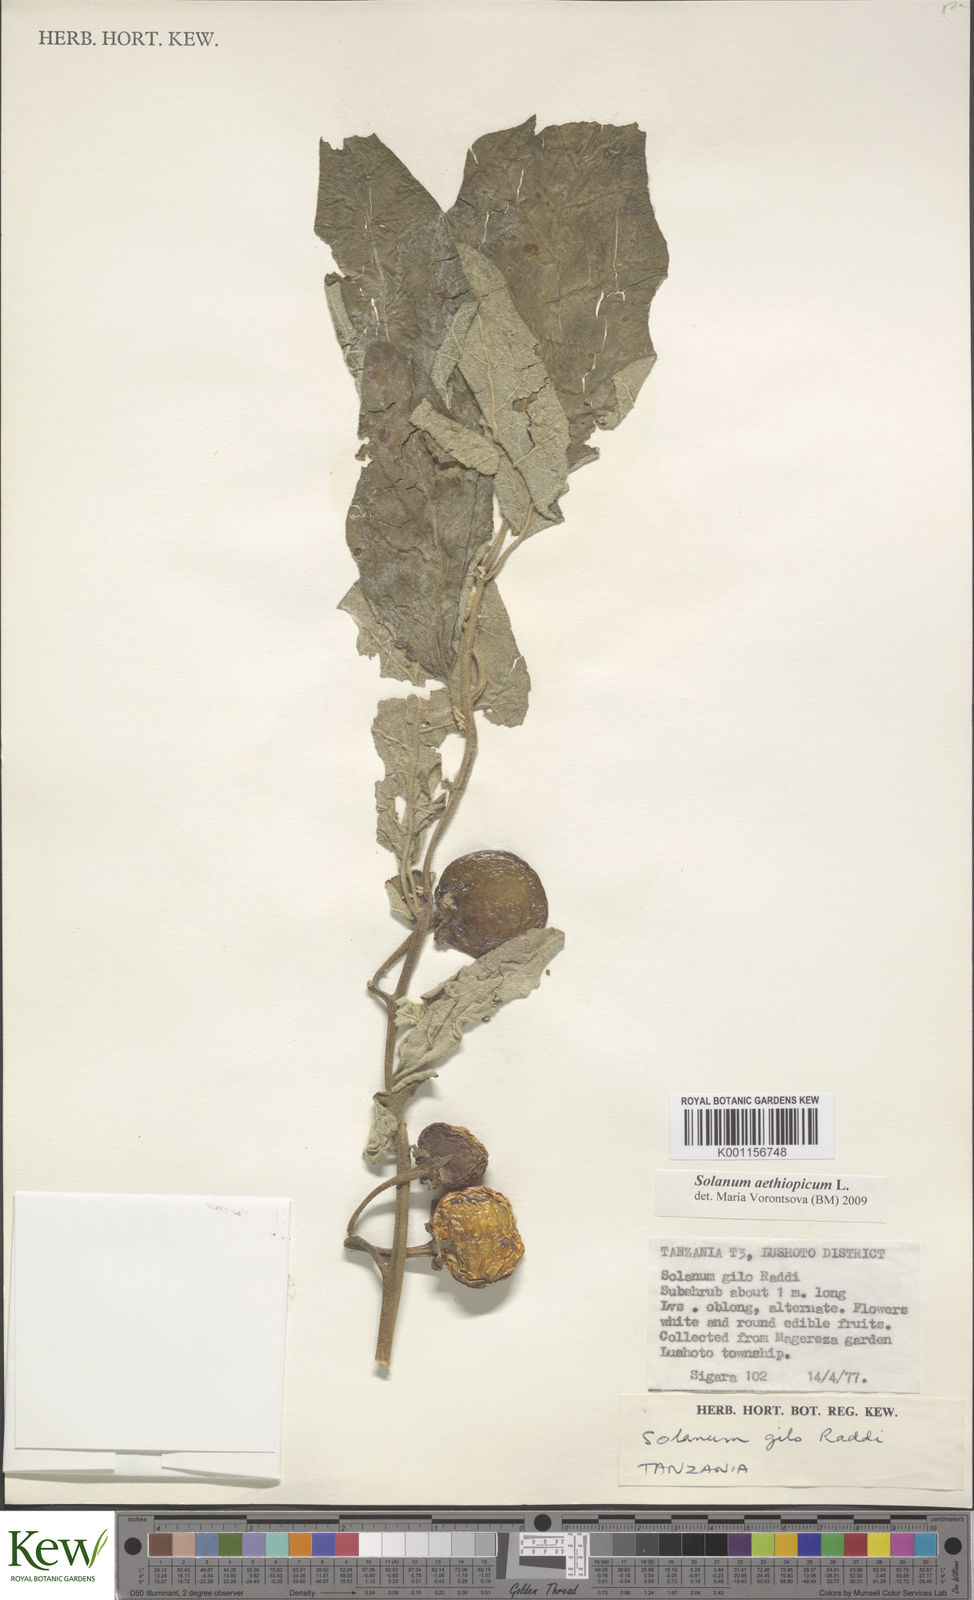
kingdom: Plantae
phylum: Tracheophyta
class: Magnoliopsida
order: Solanales
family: Solanaceae
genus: Solanum
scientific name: Solanum aethiopicum
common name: Gilo
